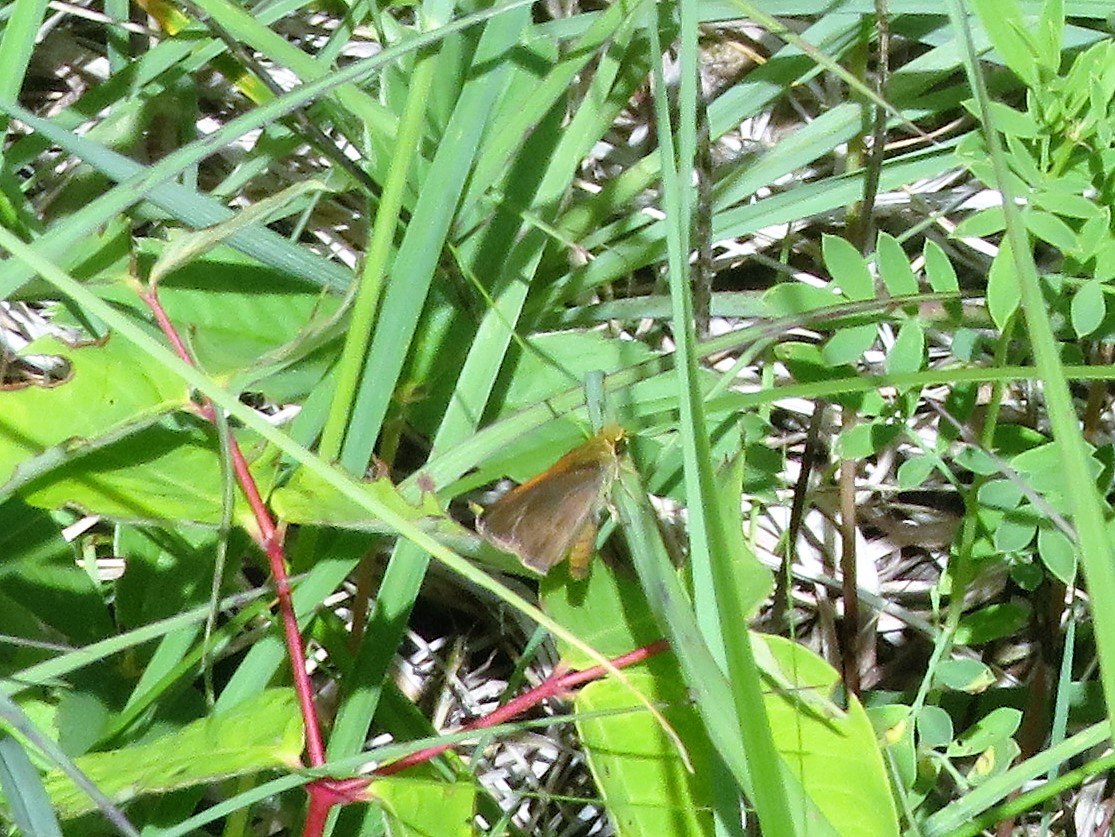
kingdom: Animalia
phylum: Arthropoda
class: Insecta
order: Lepidoptera
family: Hesperiidae
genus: Polites
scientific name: Polites themistocles
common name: Tawny-edged Skipper
